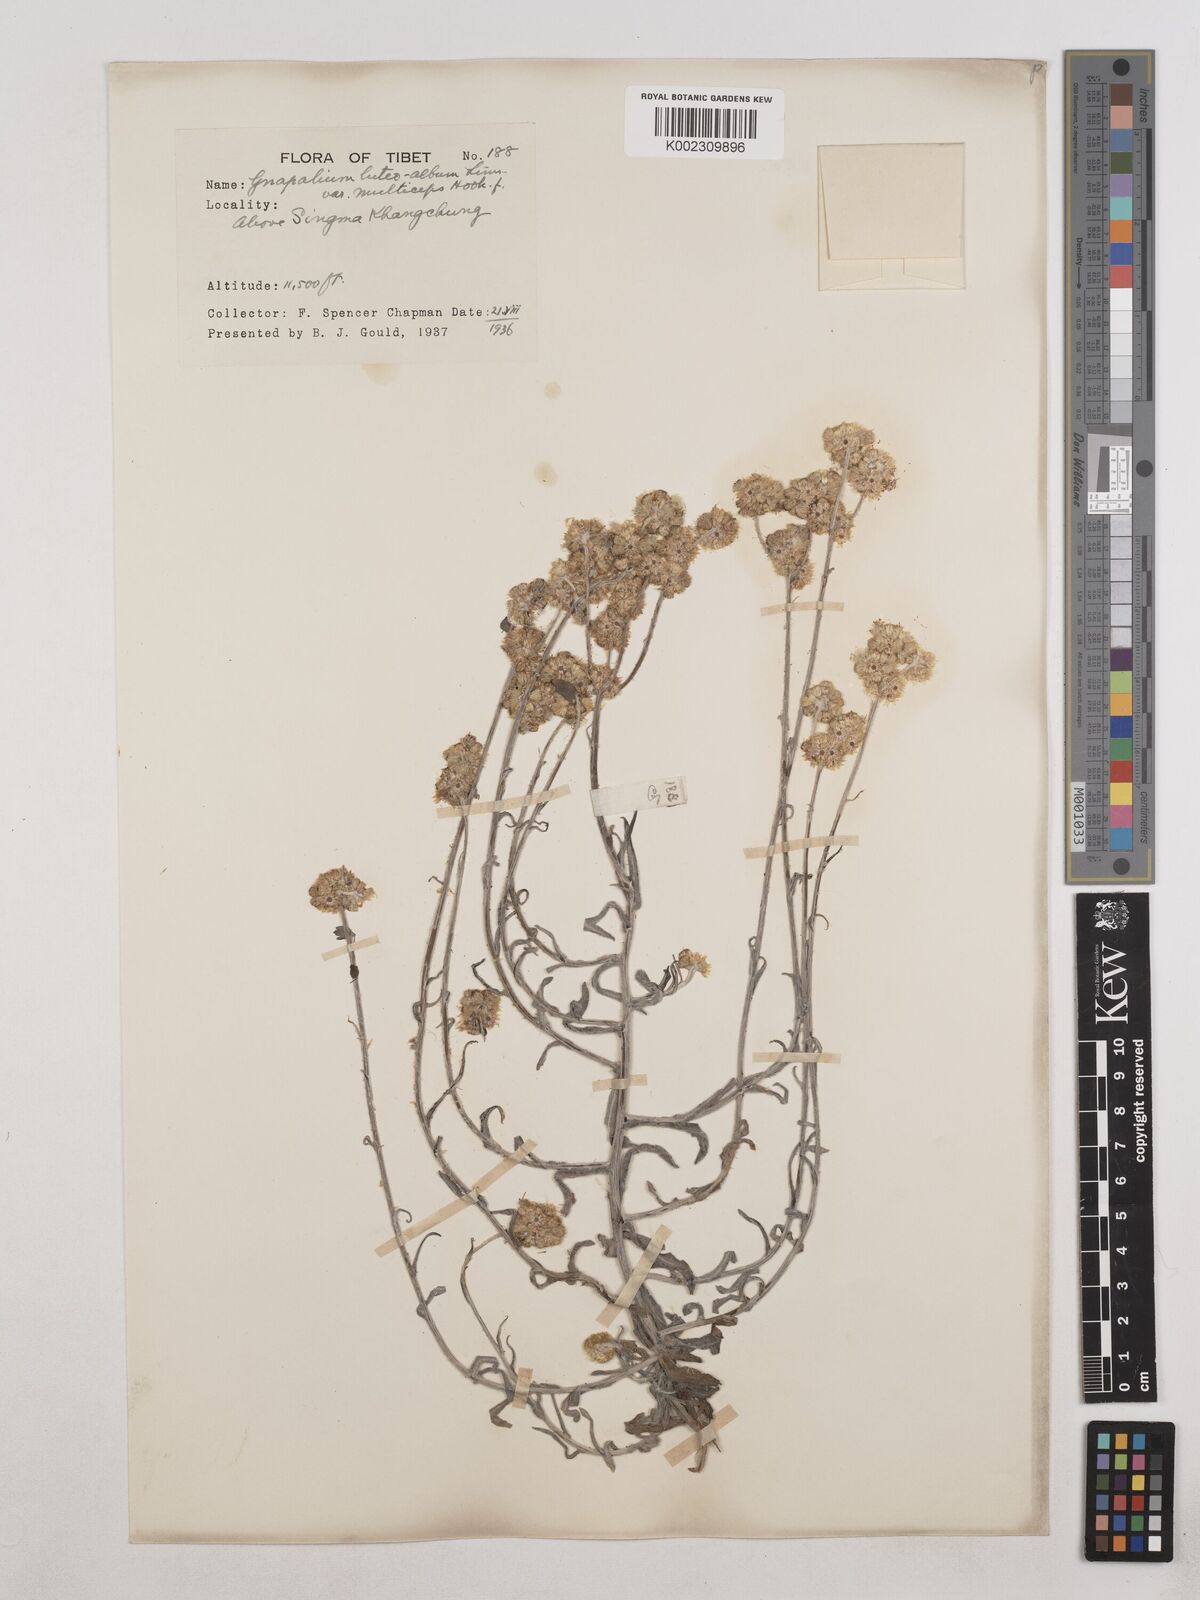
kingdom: Plantae
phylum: Tracheophyta
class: Magnoliopsida
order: Asterales
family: Asteraceae
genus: Helichrysum
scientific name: Helichrysum luteoalbum
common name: Daisy
